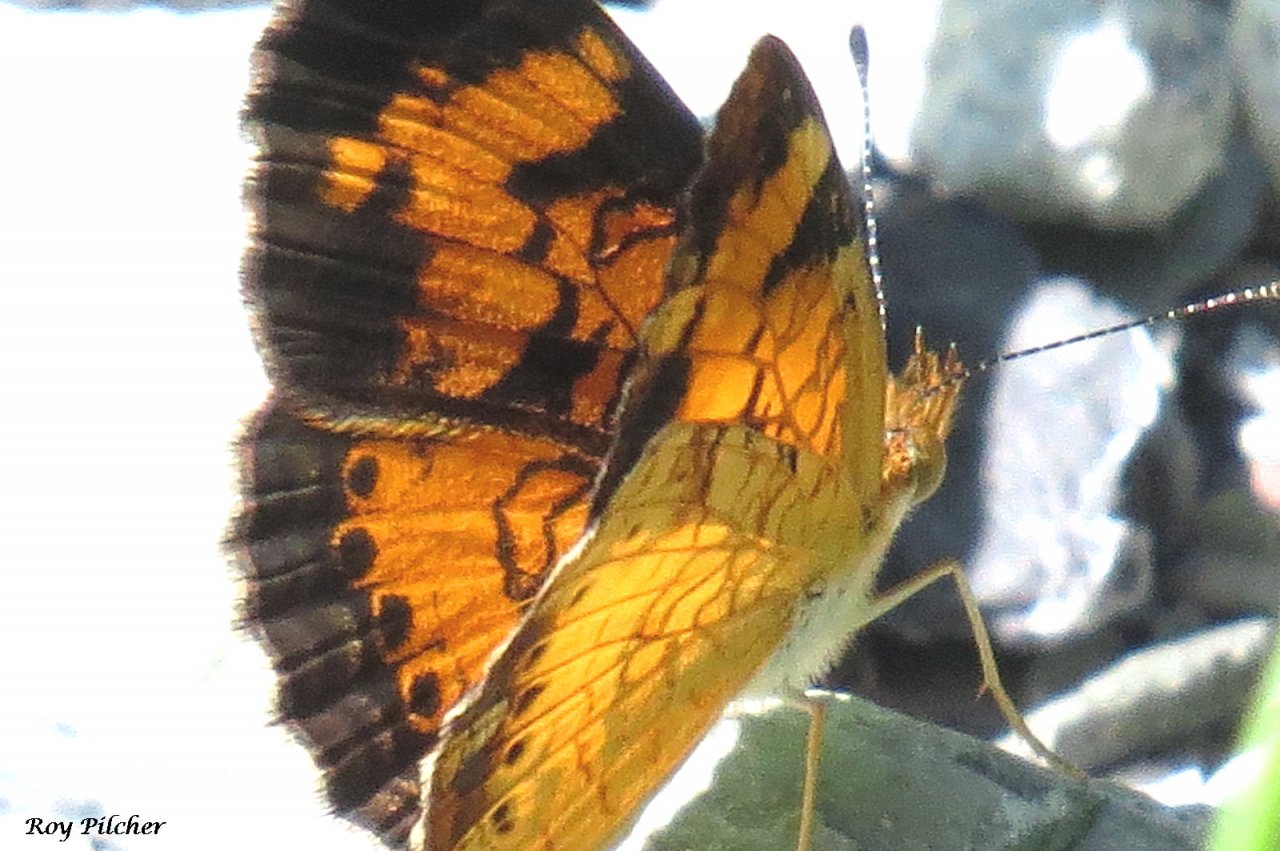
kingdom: Animalia
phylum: Arthropoda
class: Insecta
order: Lepidoptera
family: Nymphalidae
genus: Phyciodes
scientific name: Phyciodes tharos
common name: Northern Crescent
